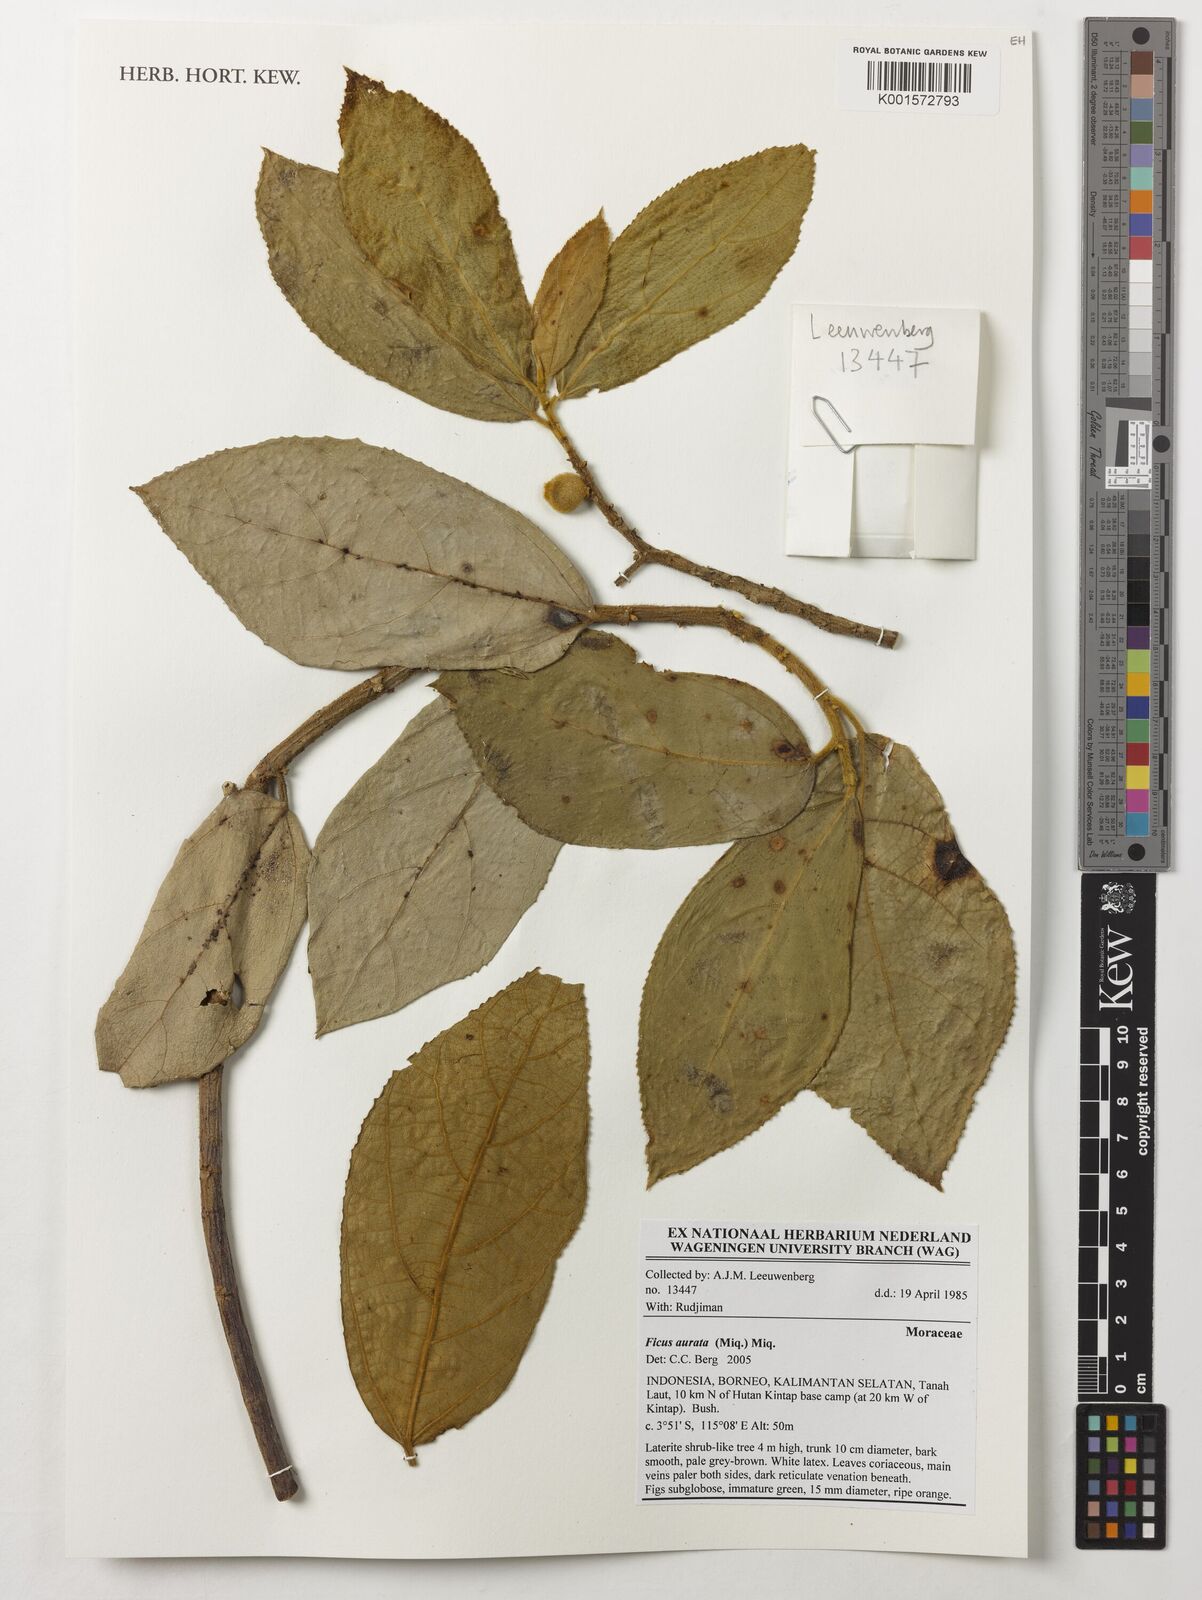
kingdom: Plantae
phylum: Tracheophyta
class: Magnoliopsida
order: Rosales
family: Moraceae
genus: Ficus
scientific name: Ficus aurata
